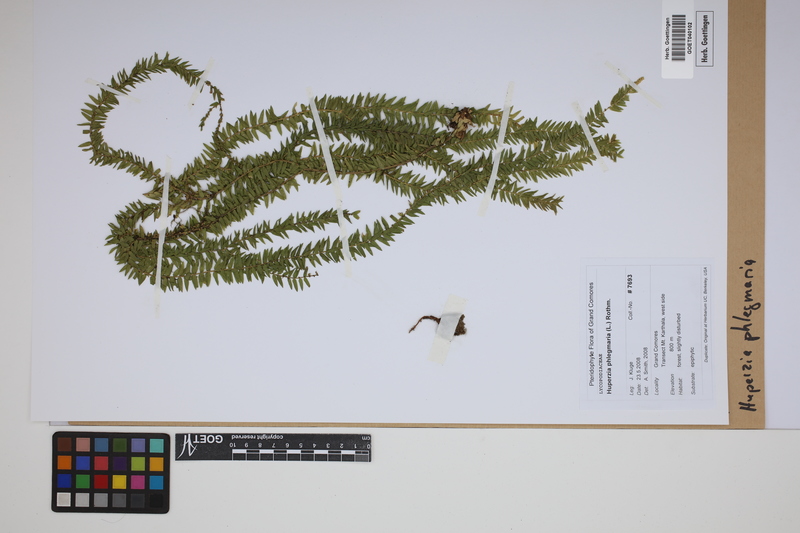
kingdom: Plantae
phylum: Tracheophyta
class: Lycopodiopsida
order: Lycopodiales
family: Lycopodiaceae
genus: Phlegmariurus
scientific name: Phlegmariurus phlegmaria
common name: Coarse tassel-fern
